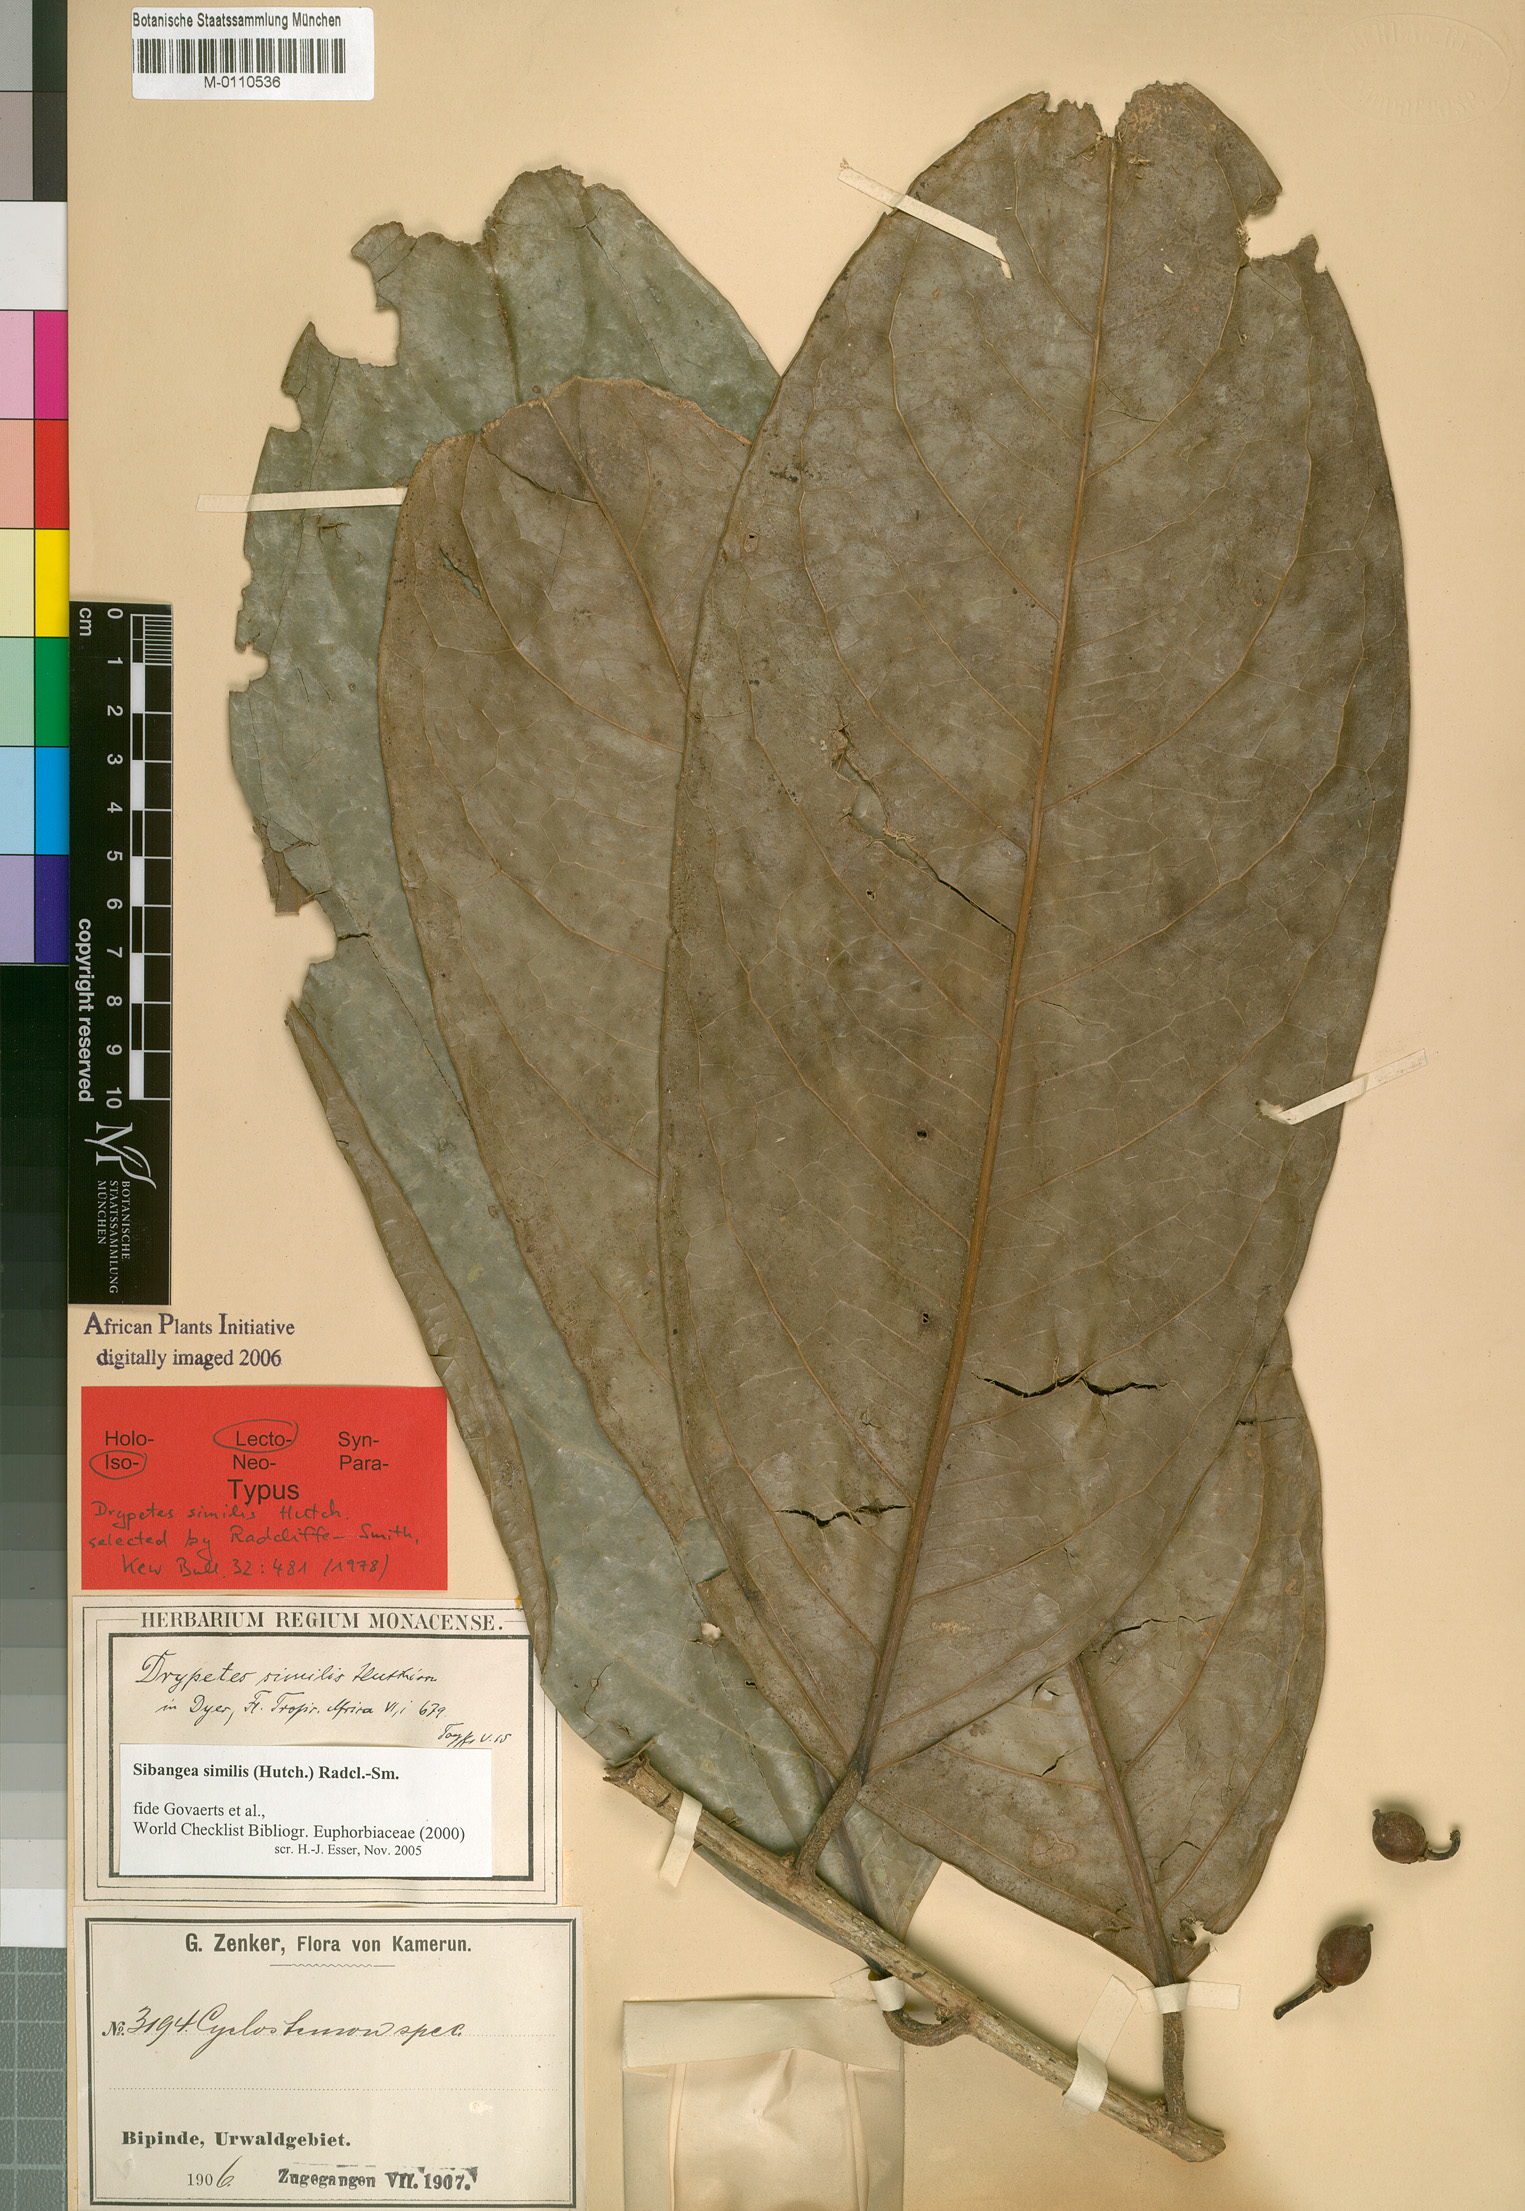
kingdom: Plantae
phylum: Tracheophyta
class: Magnoliopsida
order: Malpighiales
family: Putranjivaceae
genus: Drypetes
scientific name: Drypetes similis
